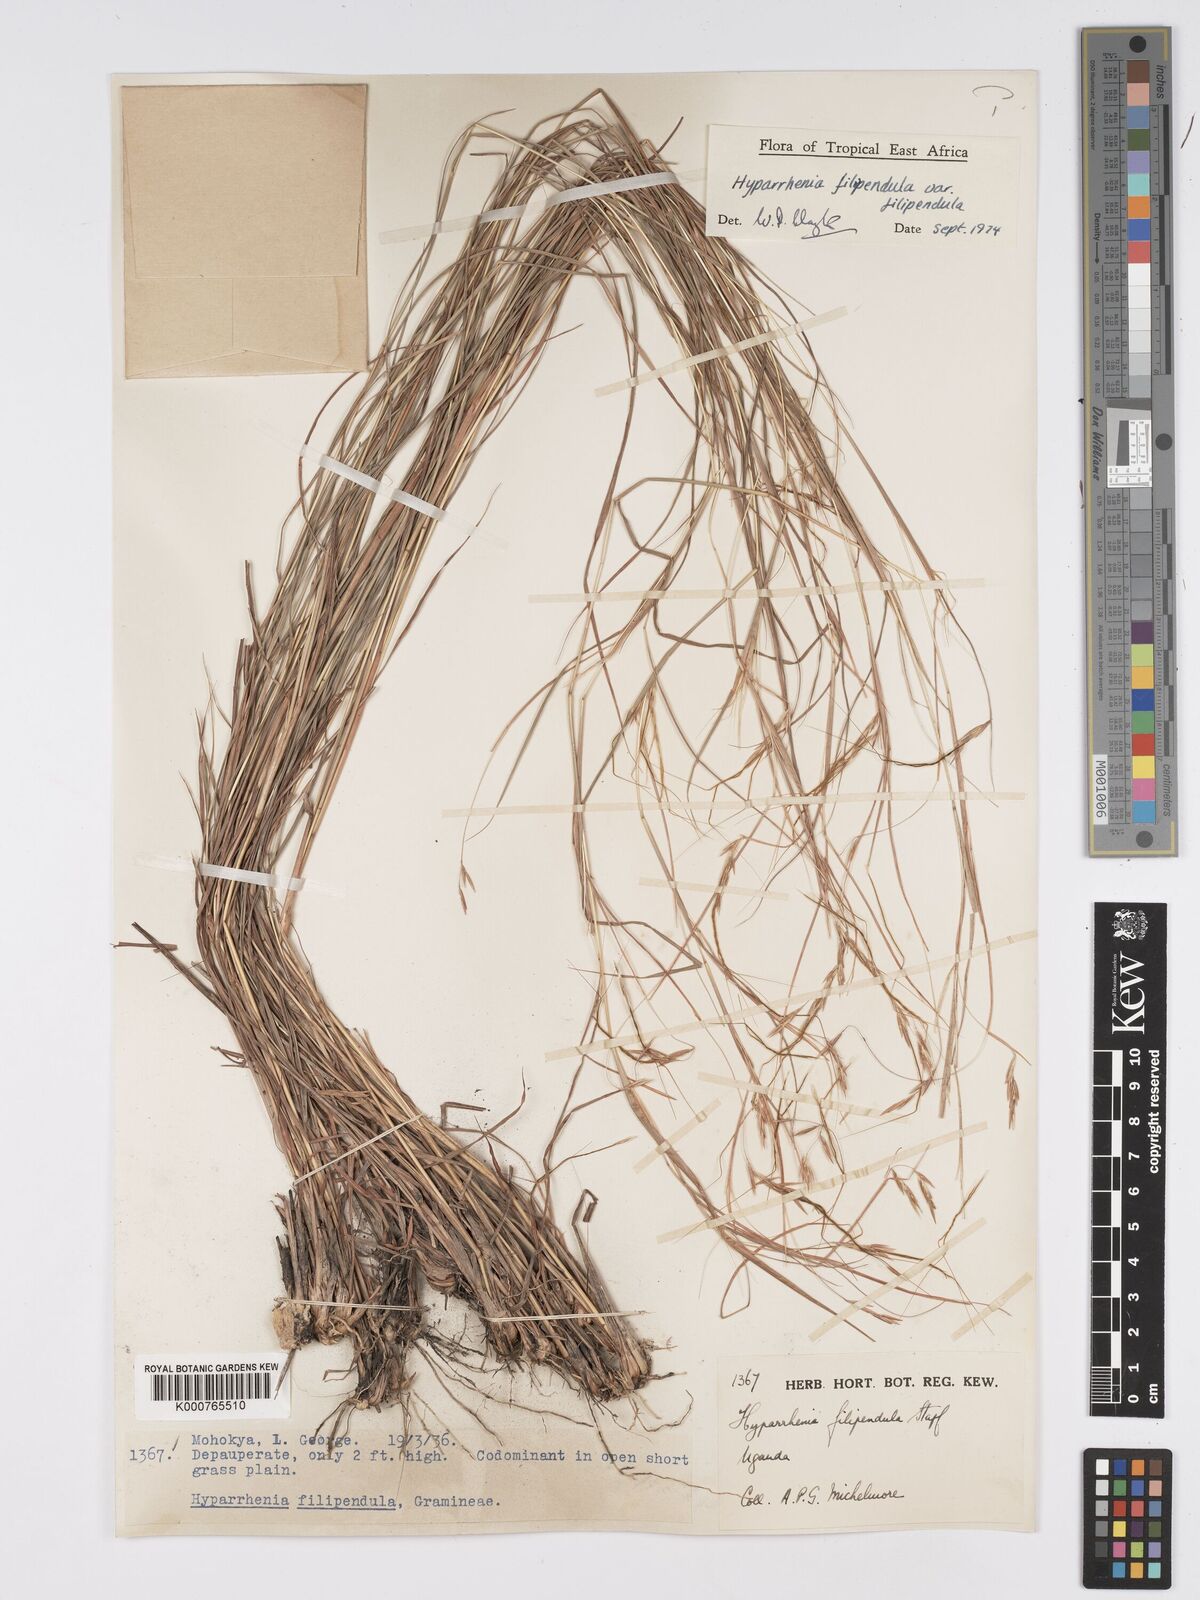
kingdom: Plantae
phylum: Tracheophyta
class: Liliopsida
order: Poales
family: Poaceae
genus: Hyparrhenia
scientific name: Hyparrhenia filipendula
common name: Tambookie grass
